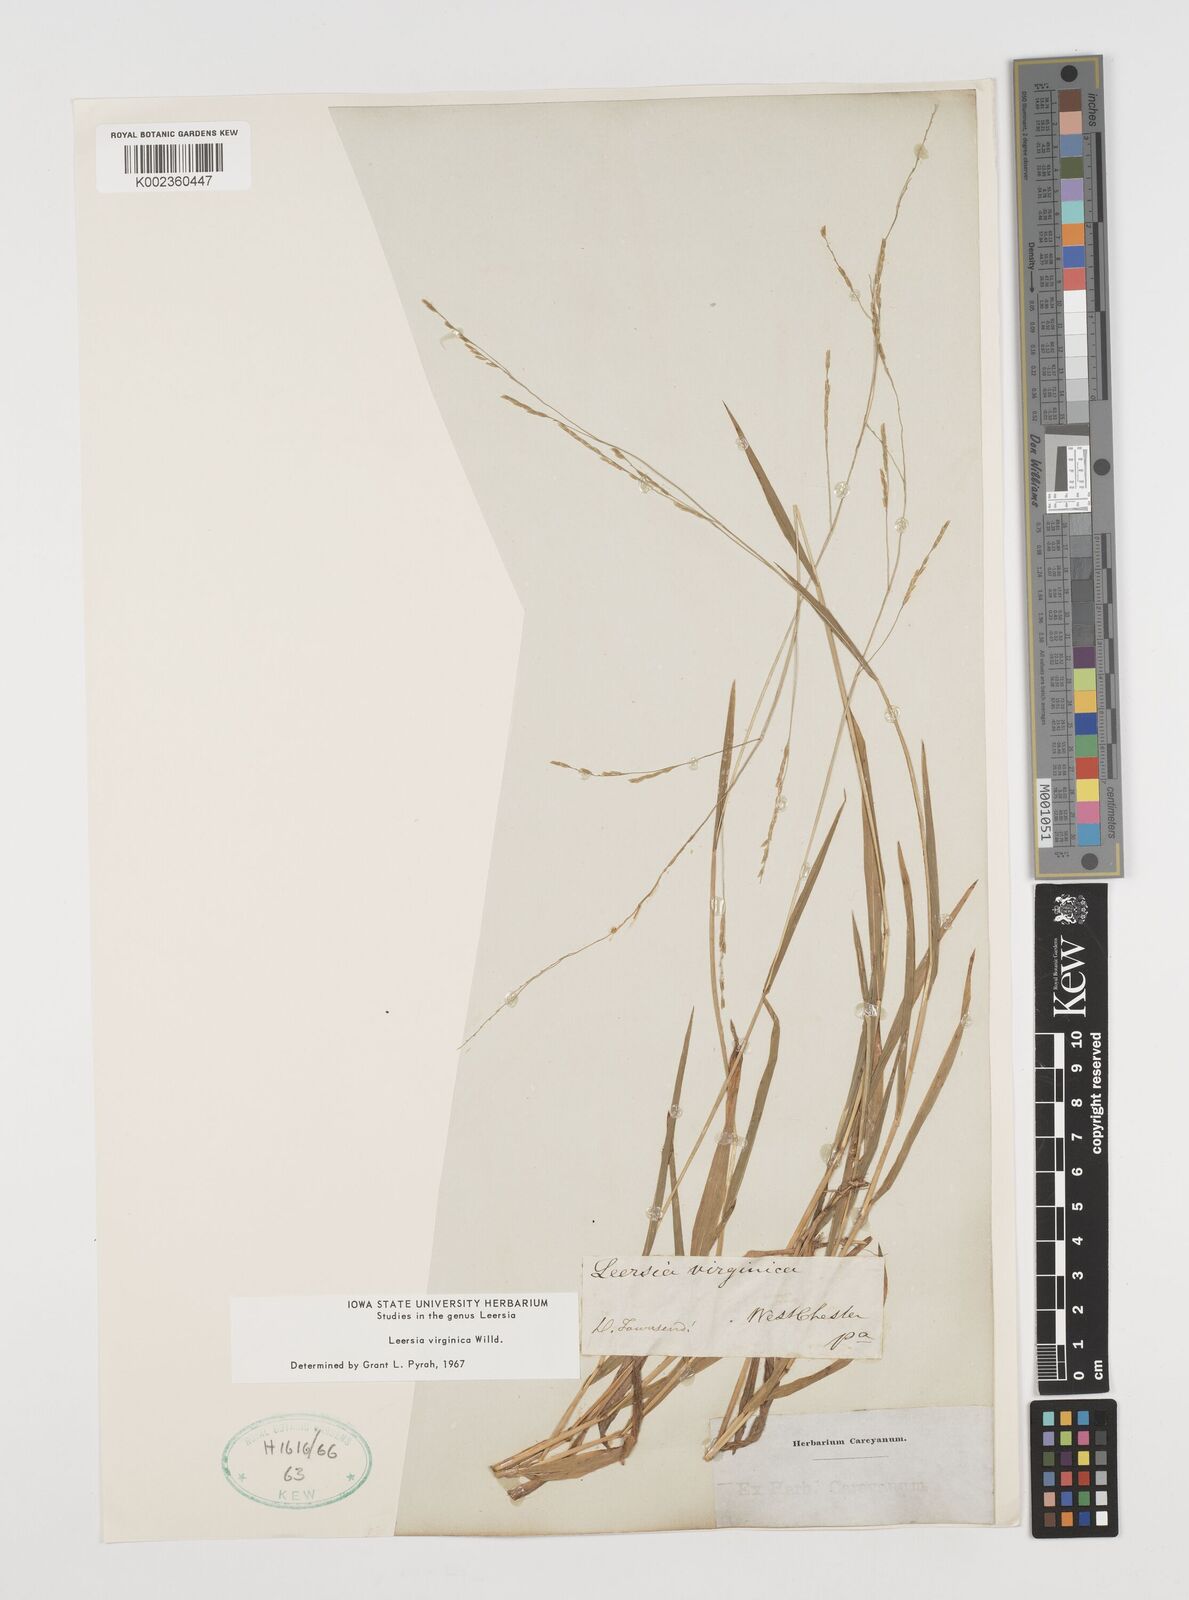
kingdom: Plantae
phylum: Tracheophyta
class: Liliopsida
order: Poales
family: Poaceae
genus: Leersia
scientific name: Leersia virginica
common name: White cutgrass
